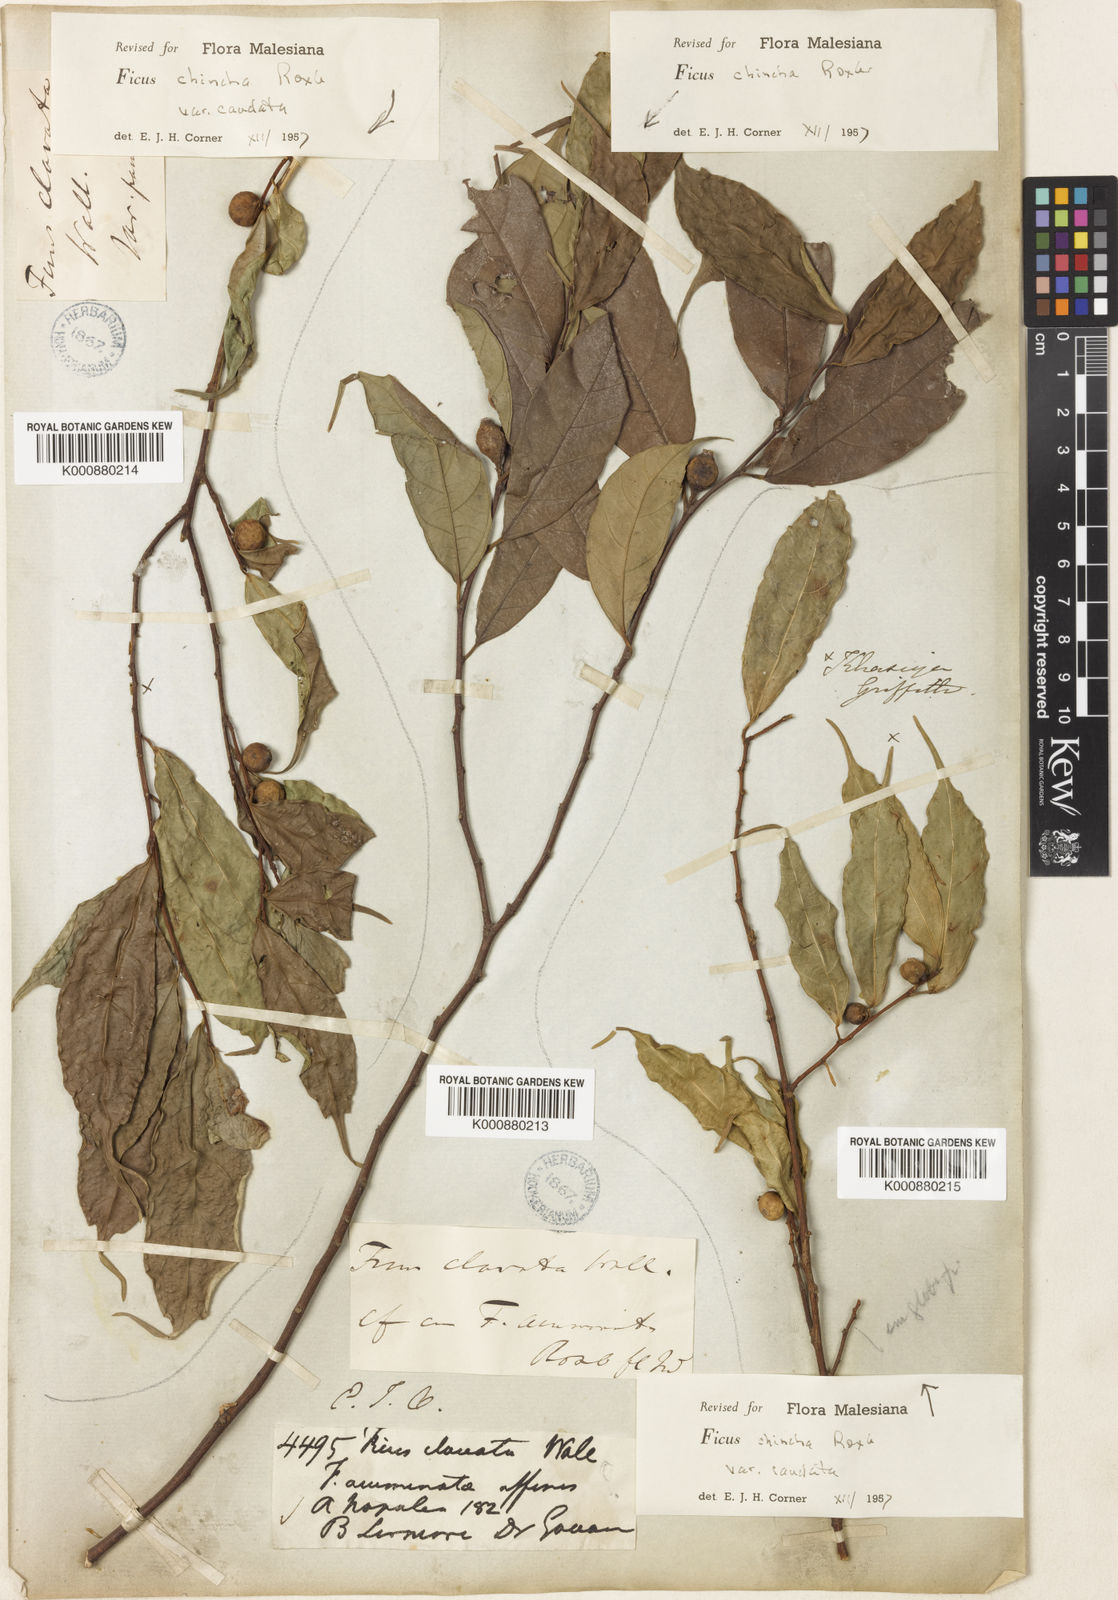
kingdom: Plantae
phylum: Tracheophyta
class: Magnoliopsida
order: Rosales
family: Moraceae
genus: Ficus
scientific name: Ficus subincisa
